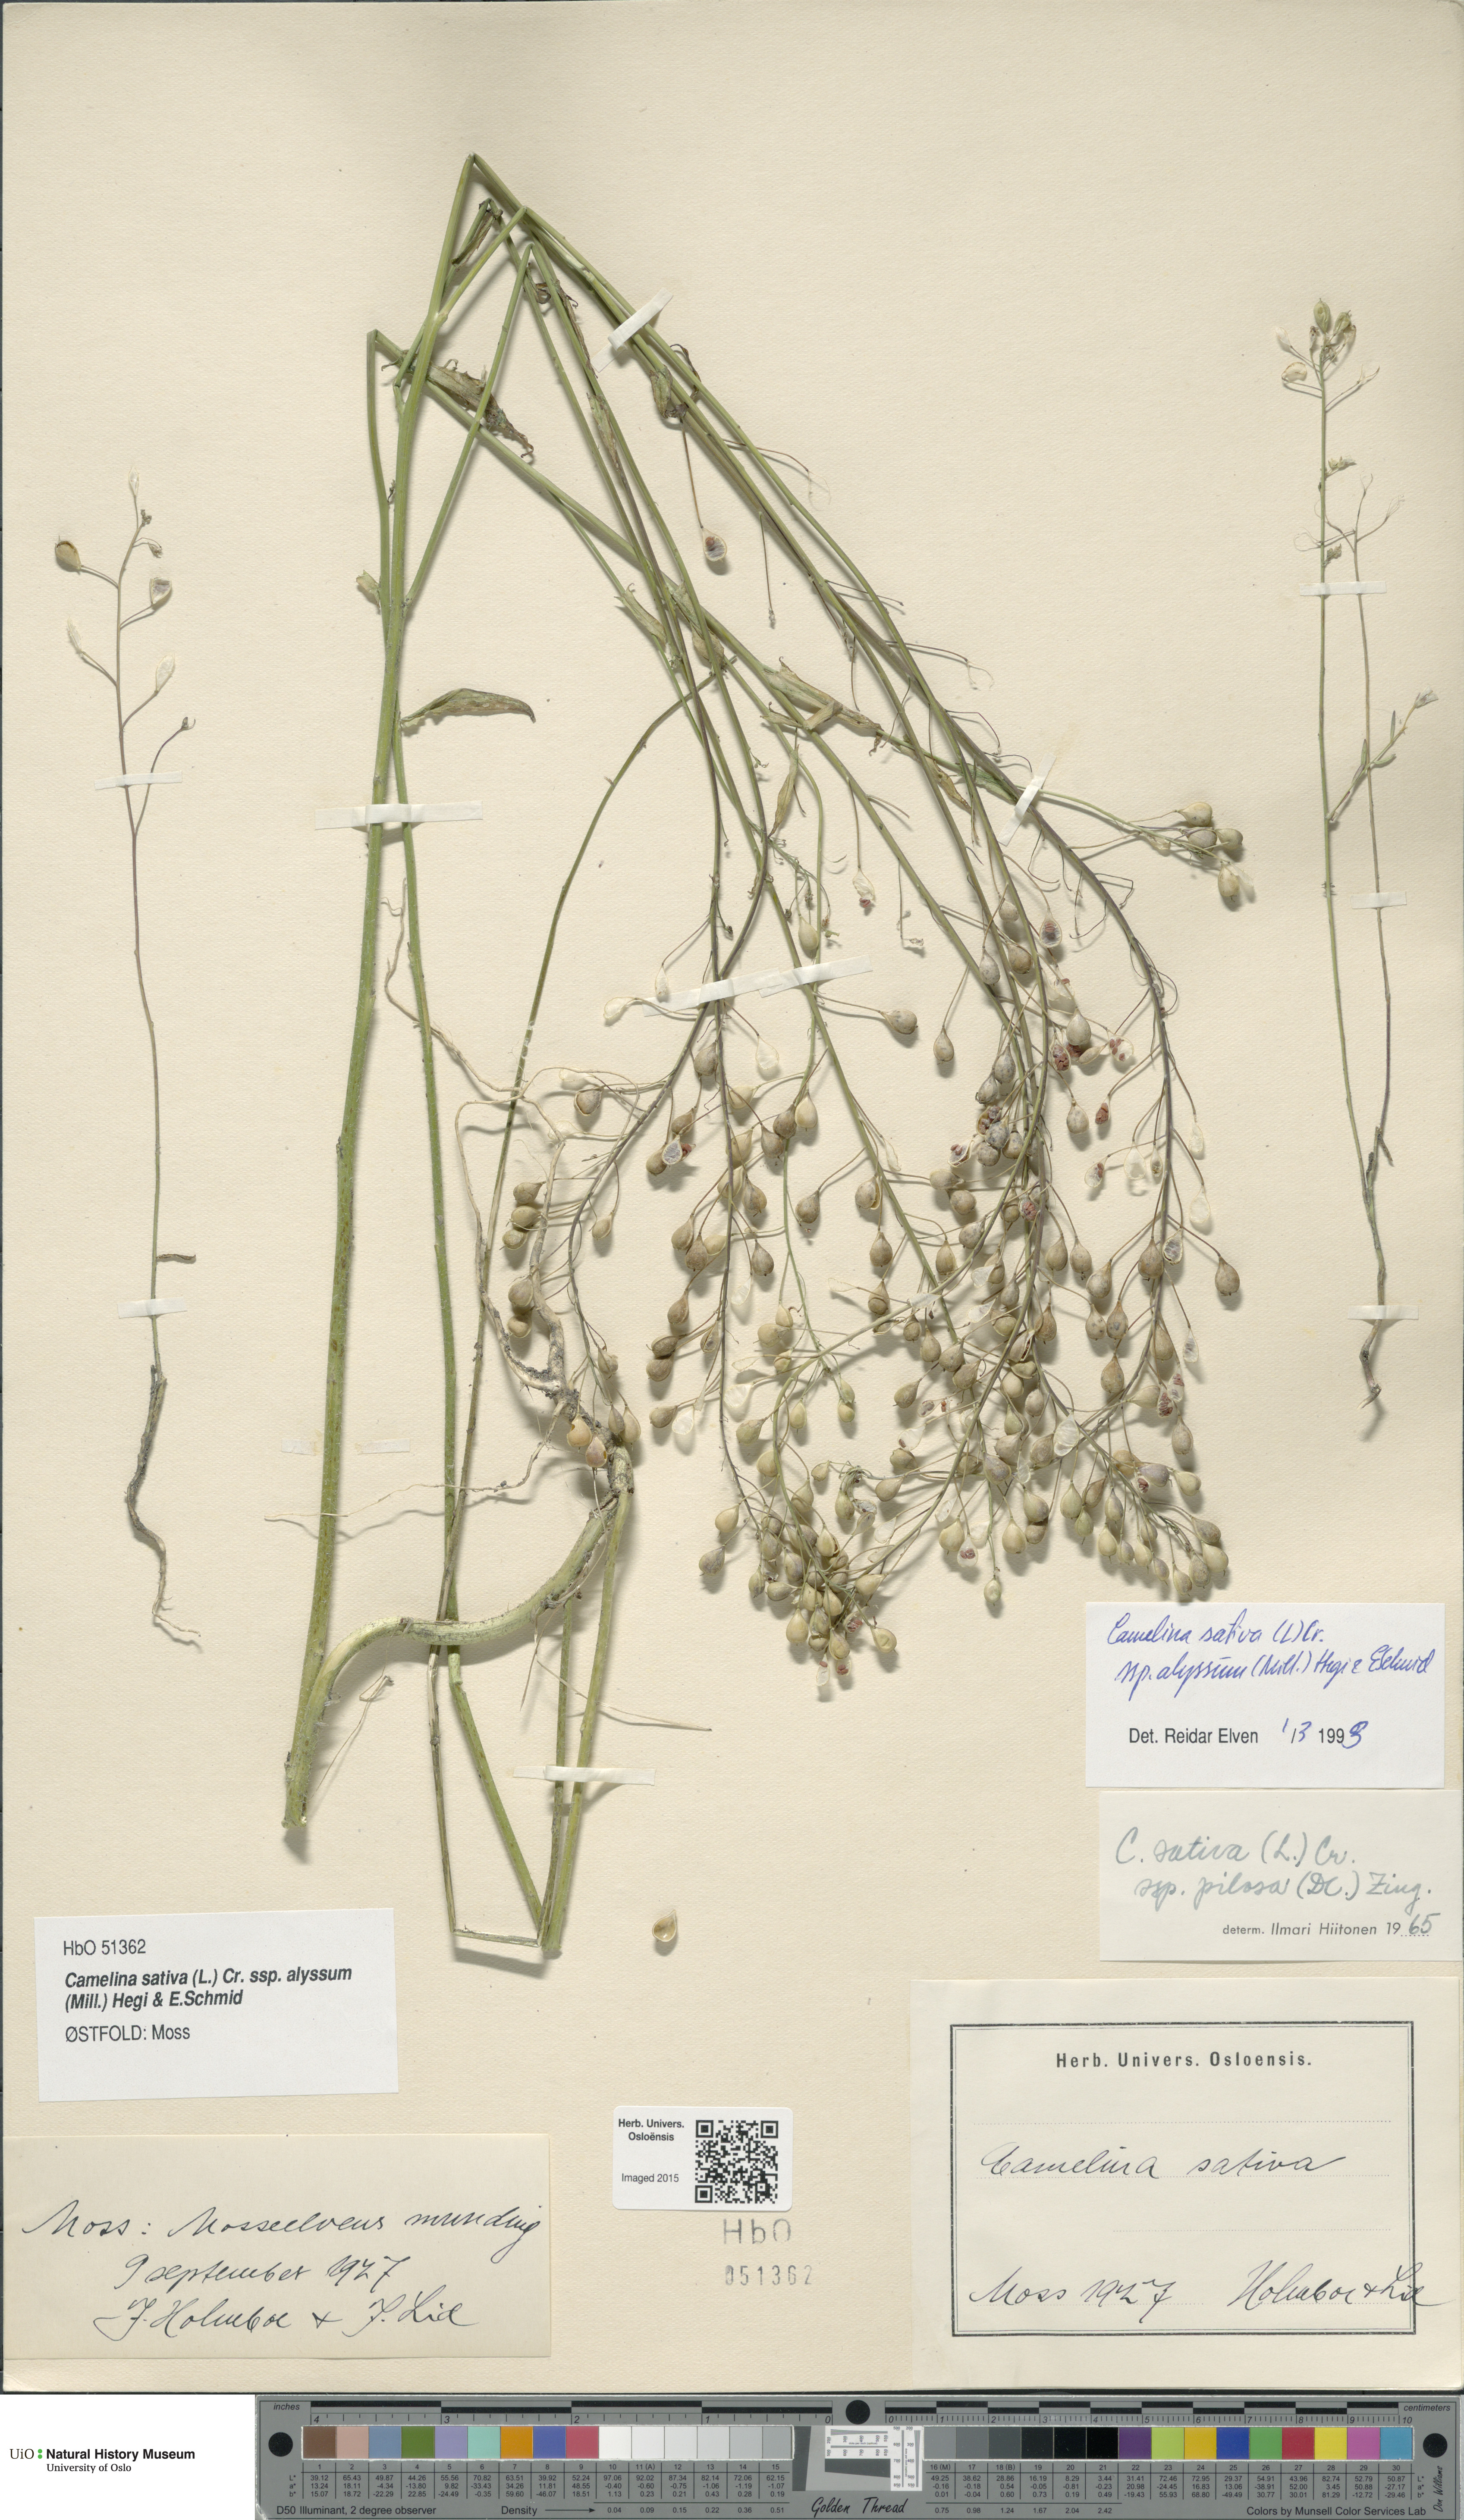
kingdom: Plantae
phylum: Tracheophyta
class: Magnoliopsida
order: Brassicales
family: Brassicaceae
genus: Camelina
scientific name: Camelina sativa
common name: Gold-of-pleasure
